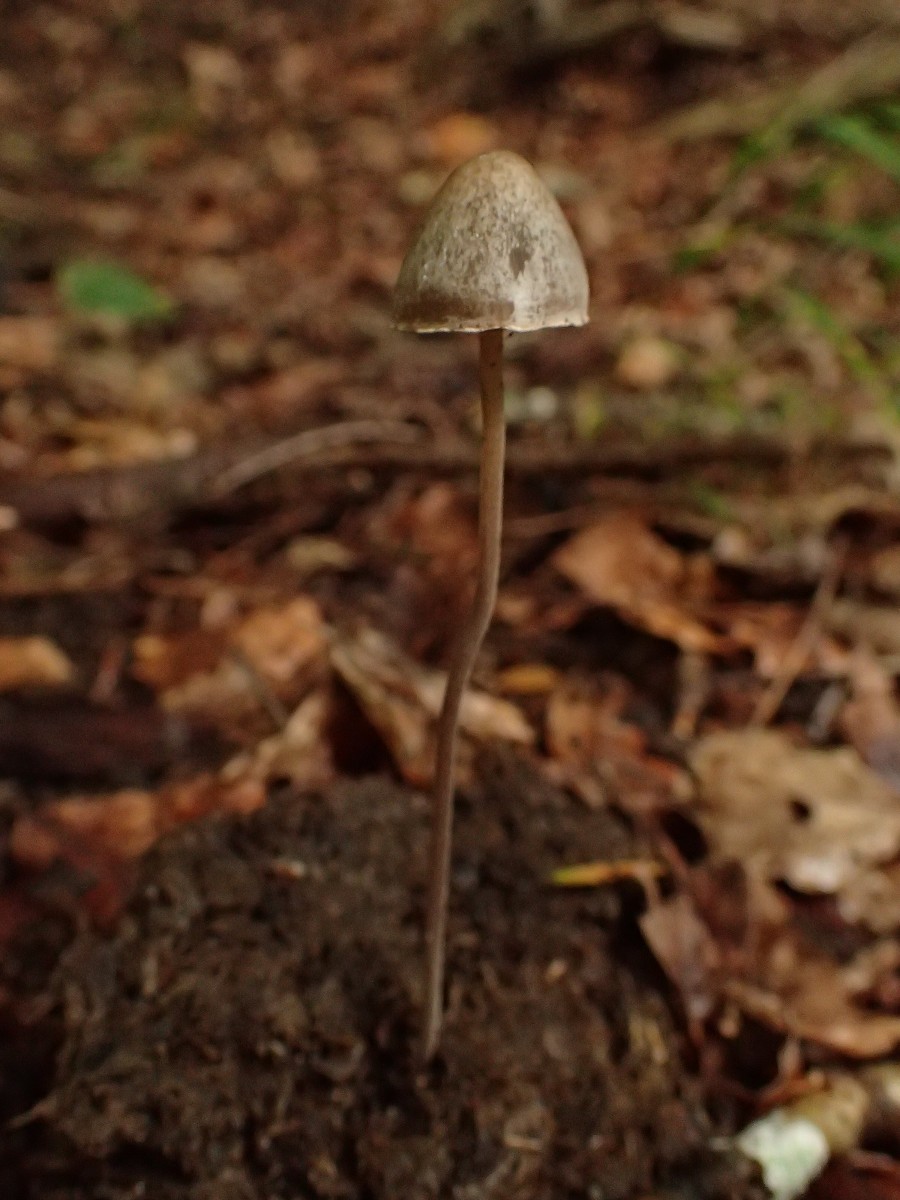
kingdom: Fungi
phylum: Basidiomycota
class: Agaricomycetes
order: Agaricales
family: Bolbitiaceae
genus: Panaeolus
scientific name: Panaeolus papilionaceus
